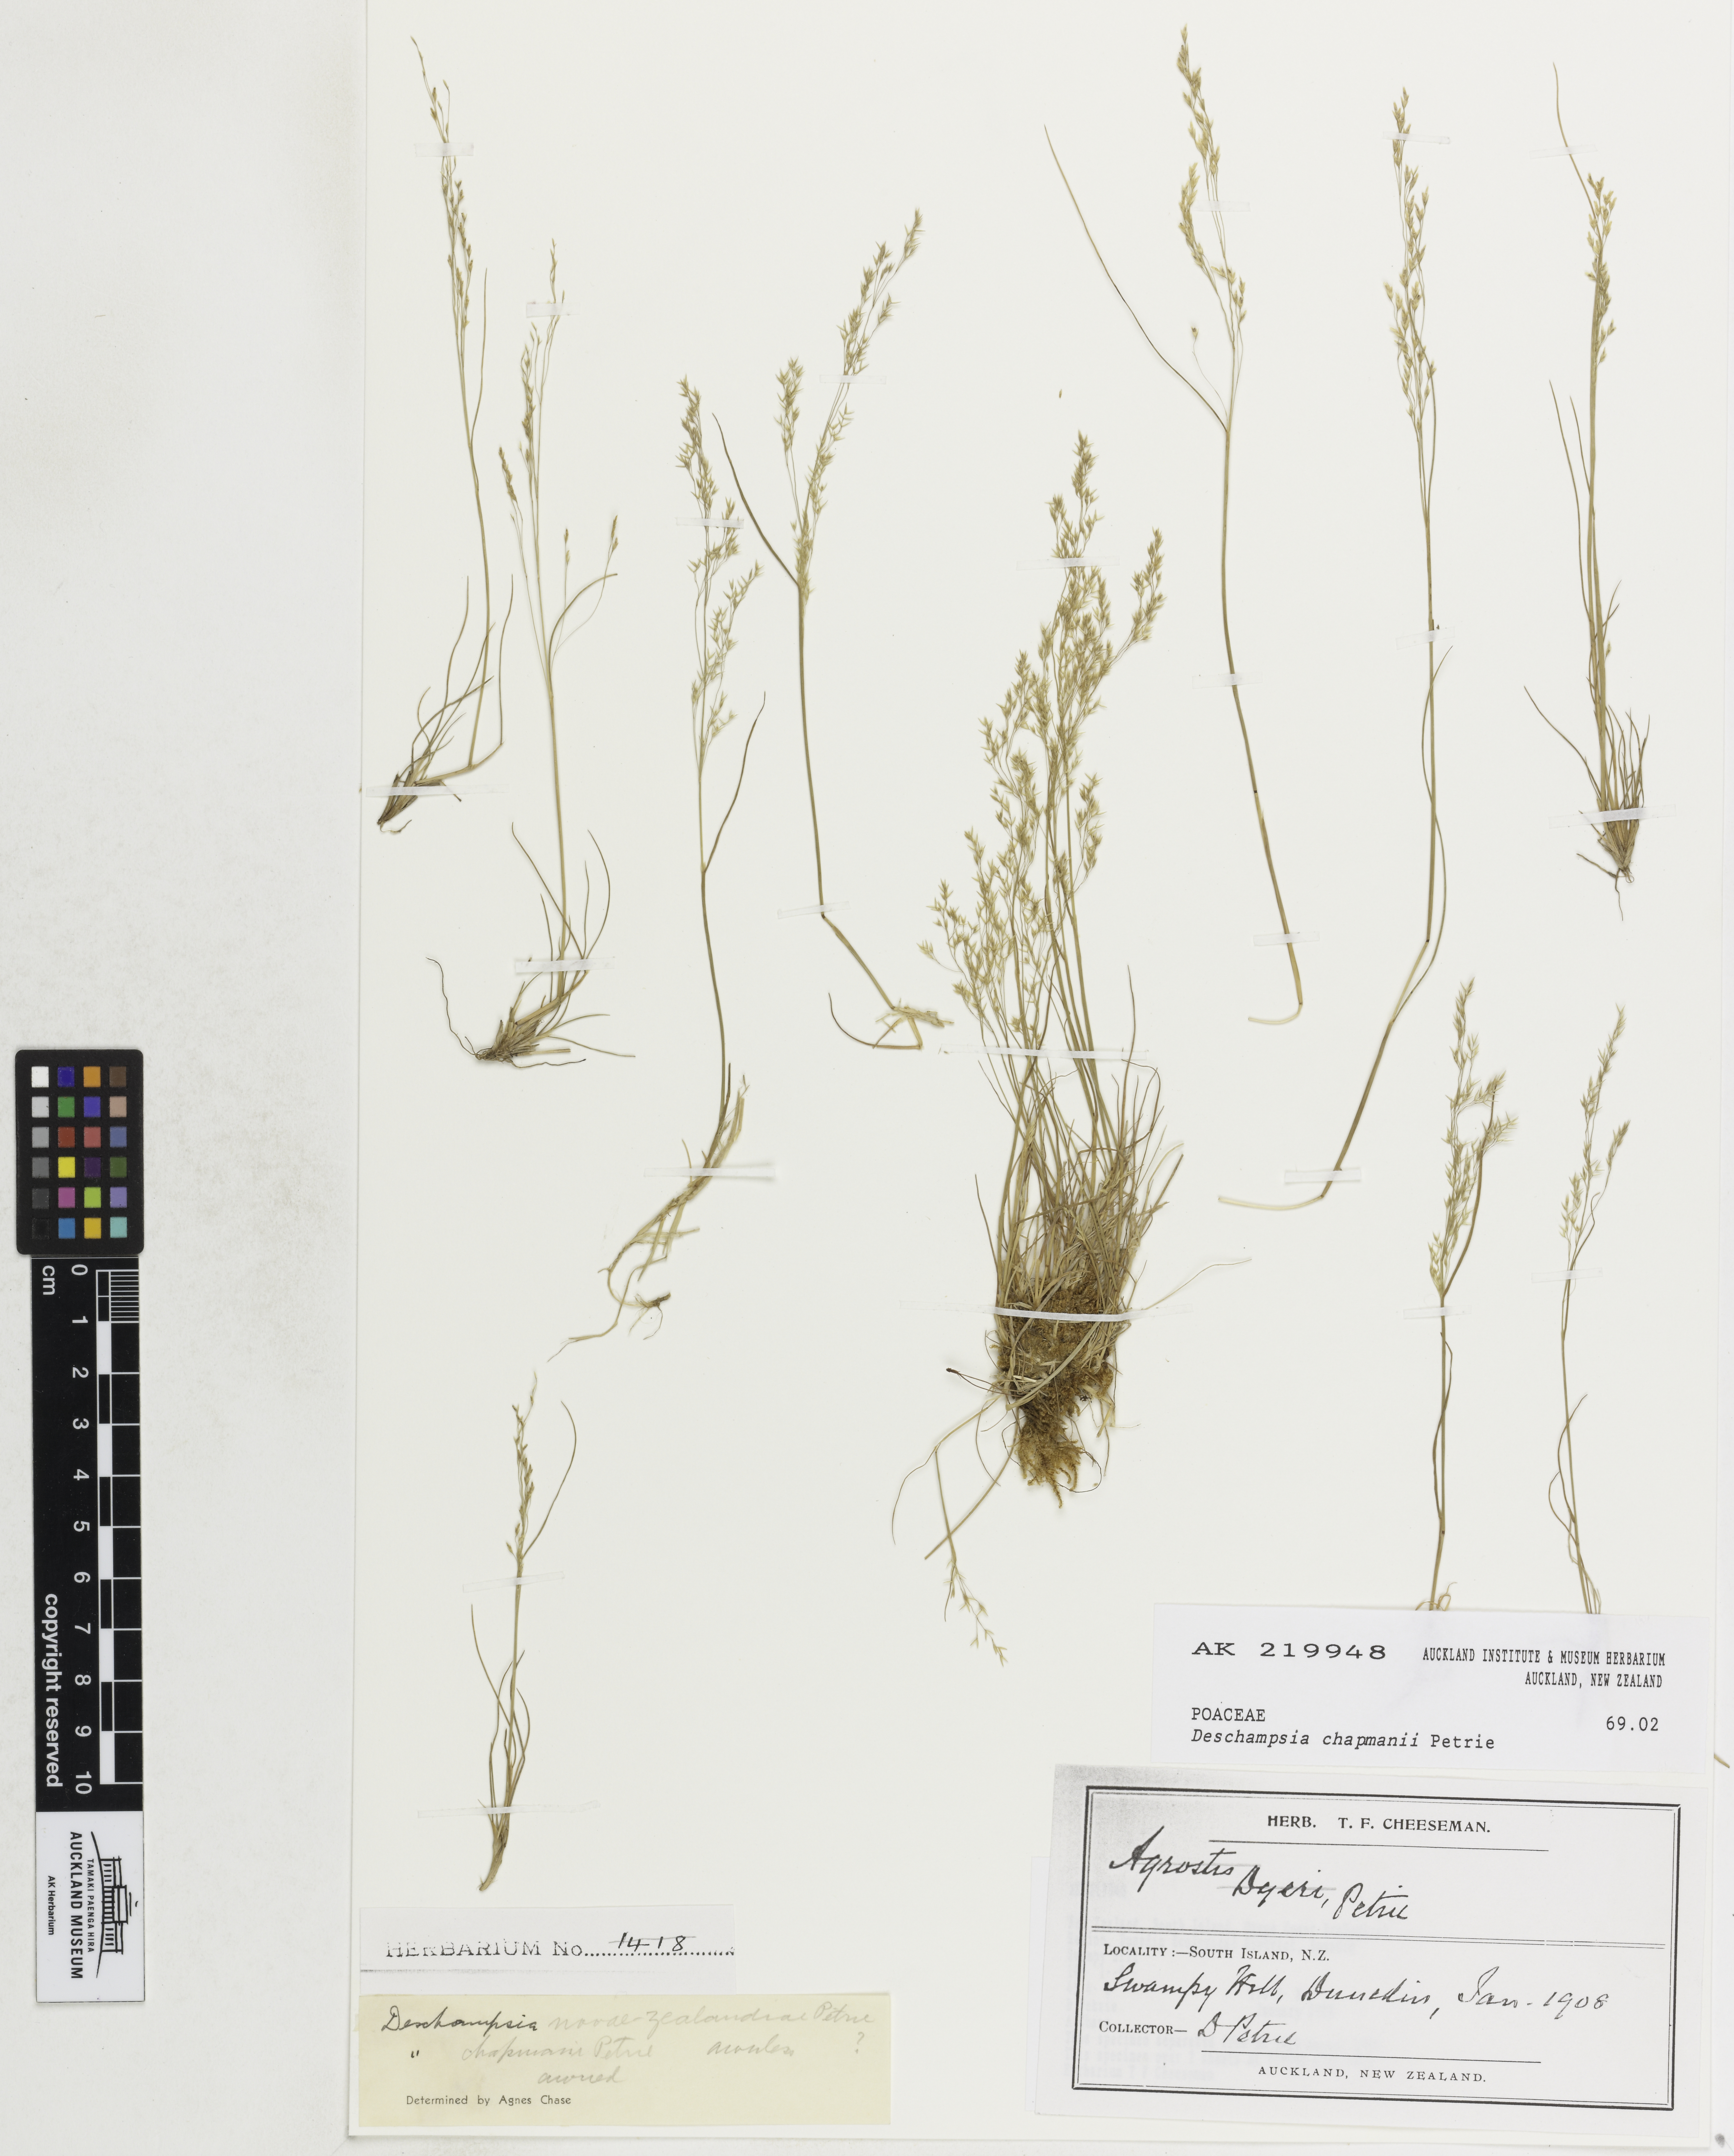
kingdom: Plantae
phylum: Tracheophyta
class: Liliopsida
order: Poales
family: Poaceae
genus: Deschampsia
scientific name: Deschampsia chapmanii
